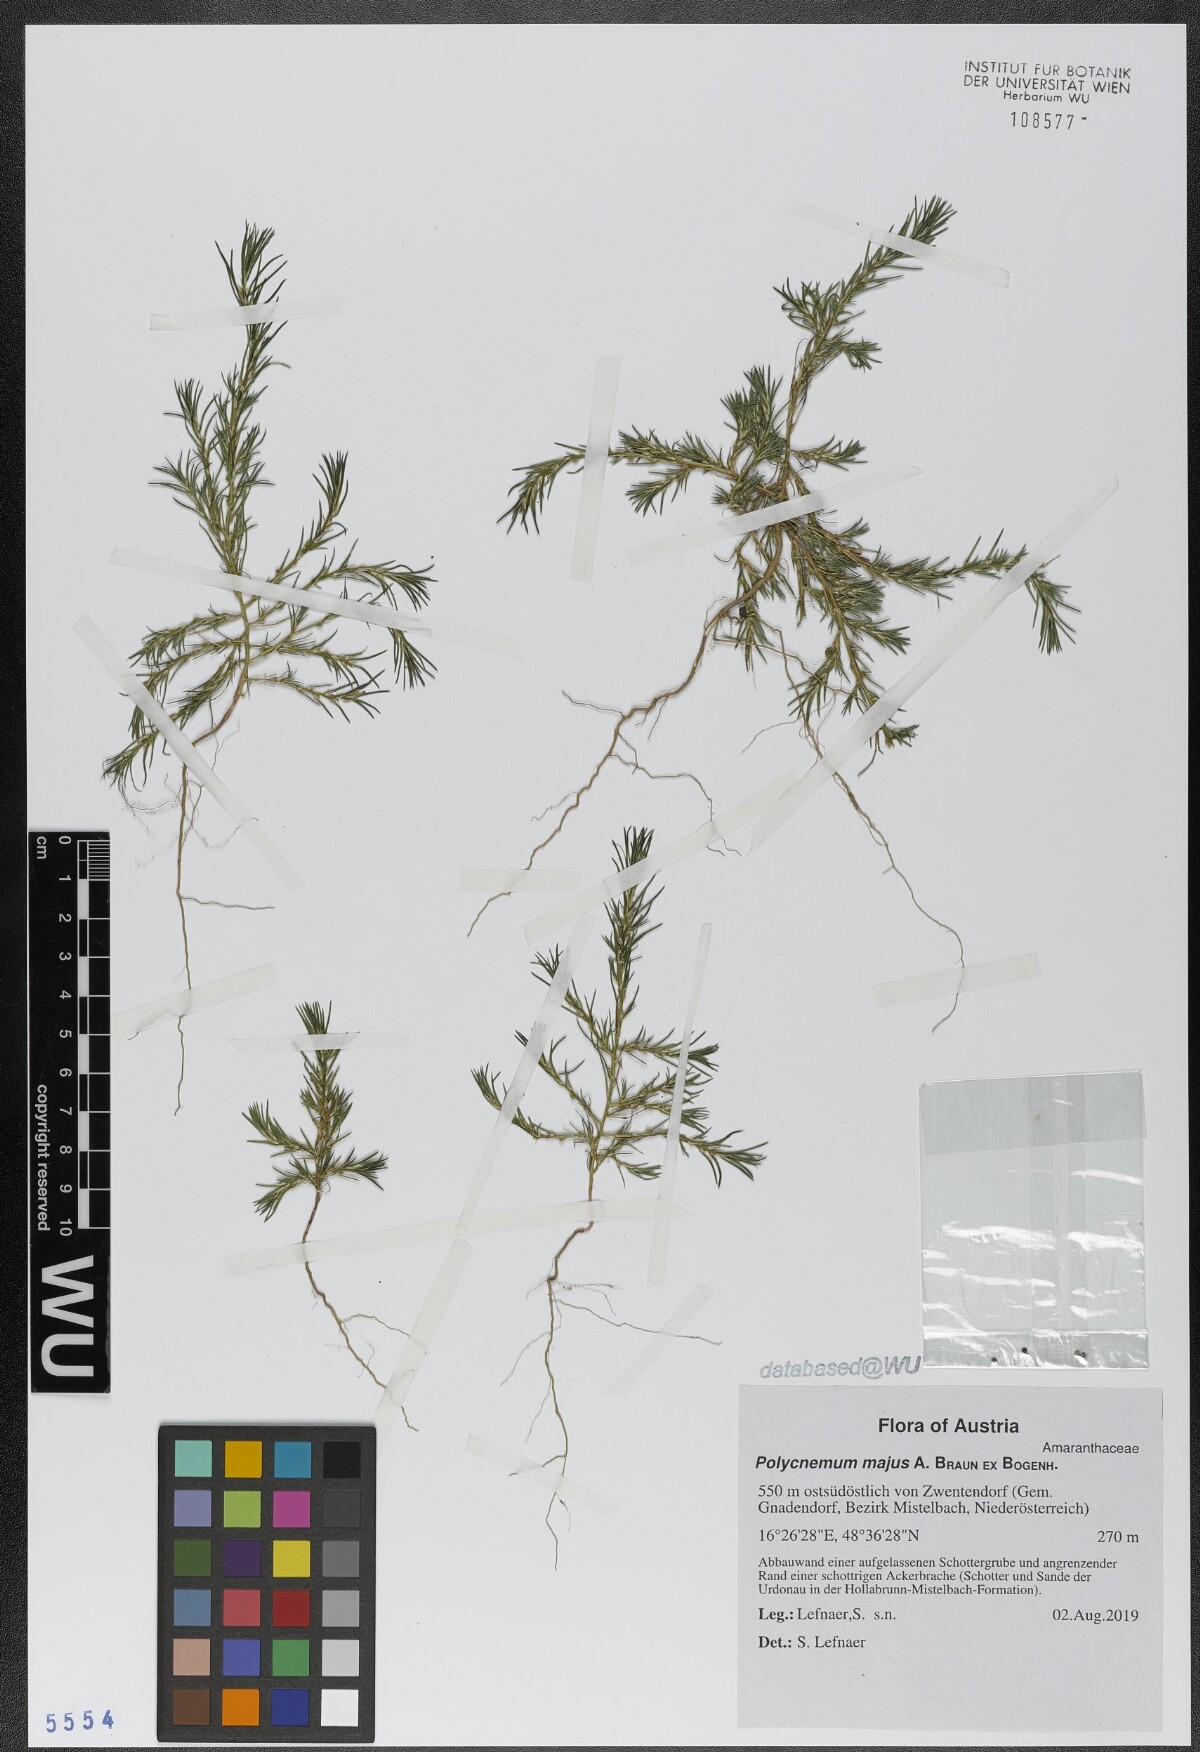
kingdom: Plantae
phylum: Tracheophyta
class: Magnoliopsida
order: Caryophyllales
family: Amaranthaceae
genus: Polycnemum
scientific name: Polycnemum majus
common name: Giant needleleaf
